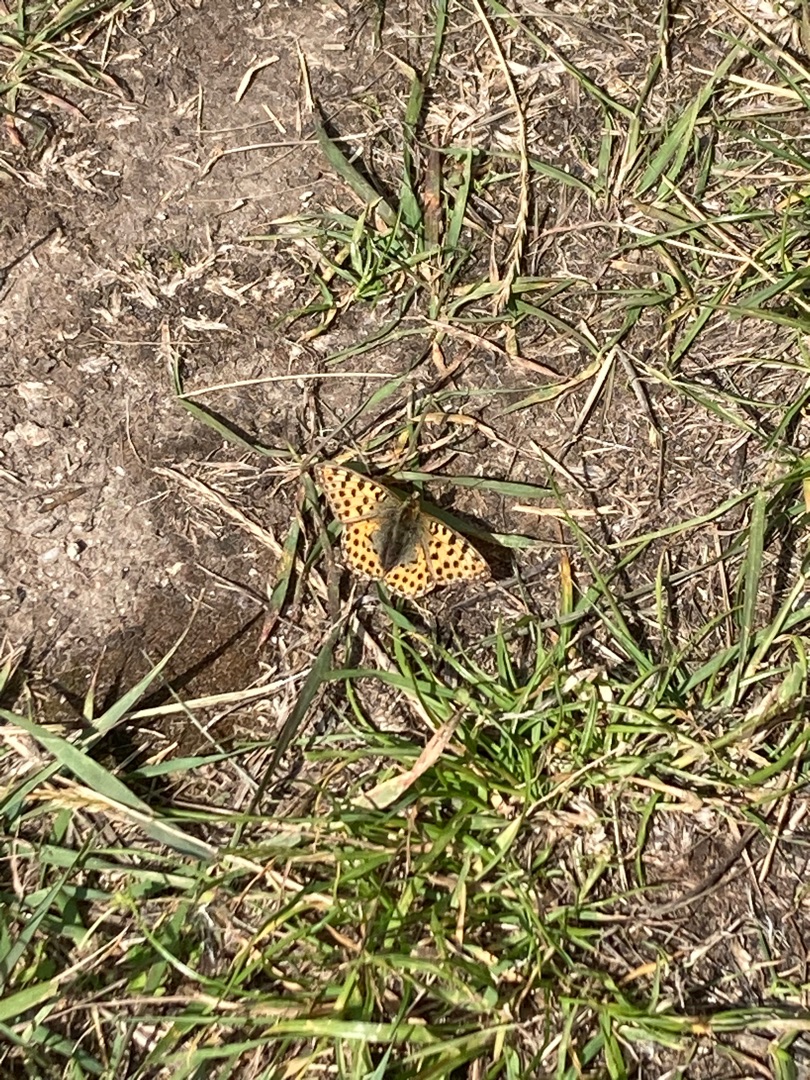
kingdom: Animalia
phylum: Arthropoda
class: Insecta
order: Lepidoptera
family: Nymphalidae
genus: Issoria
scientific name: Issoria lathonia
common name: Storplettet perlemorsommerfugl
